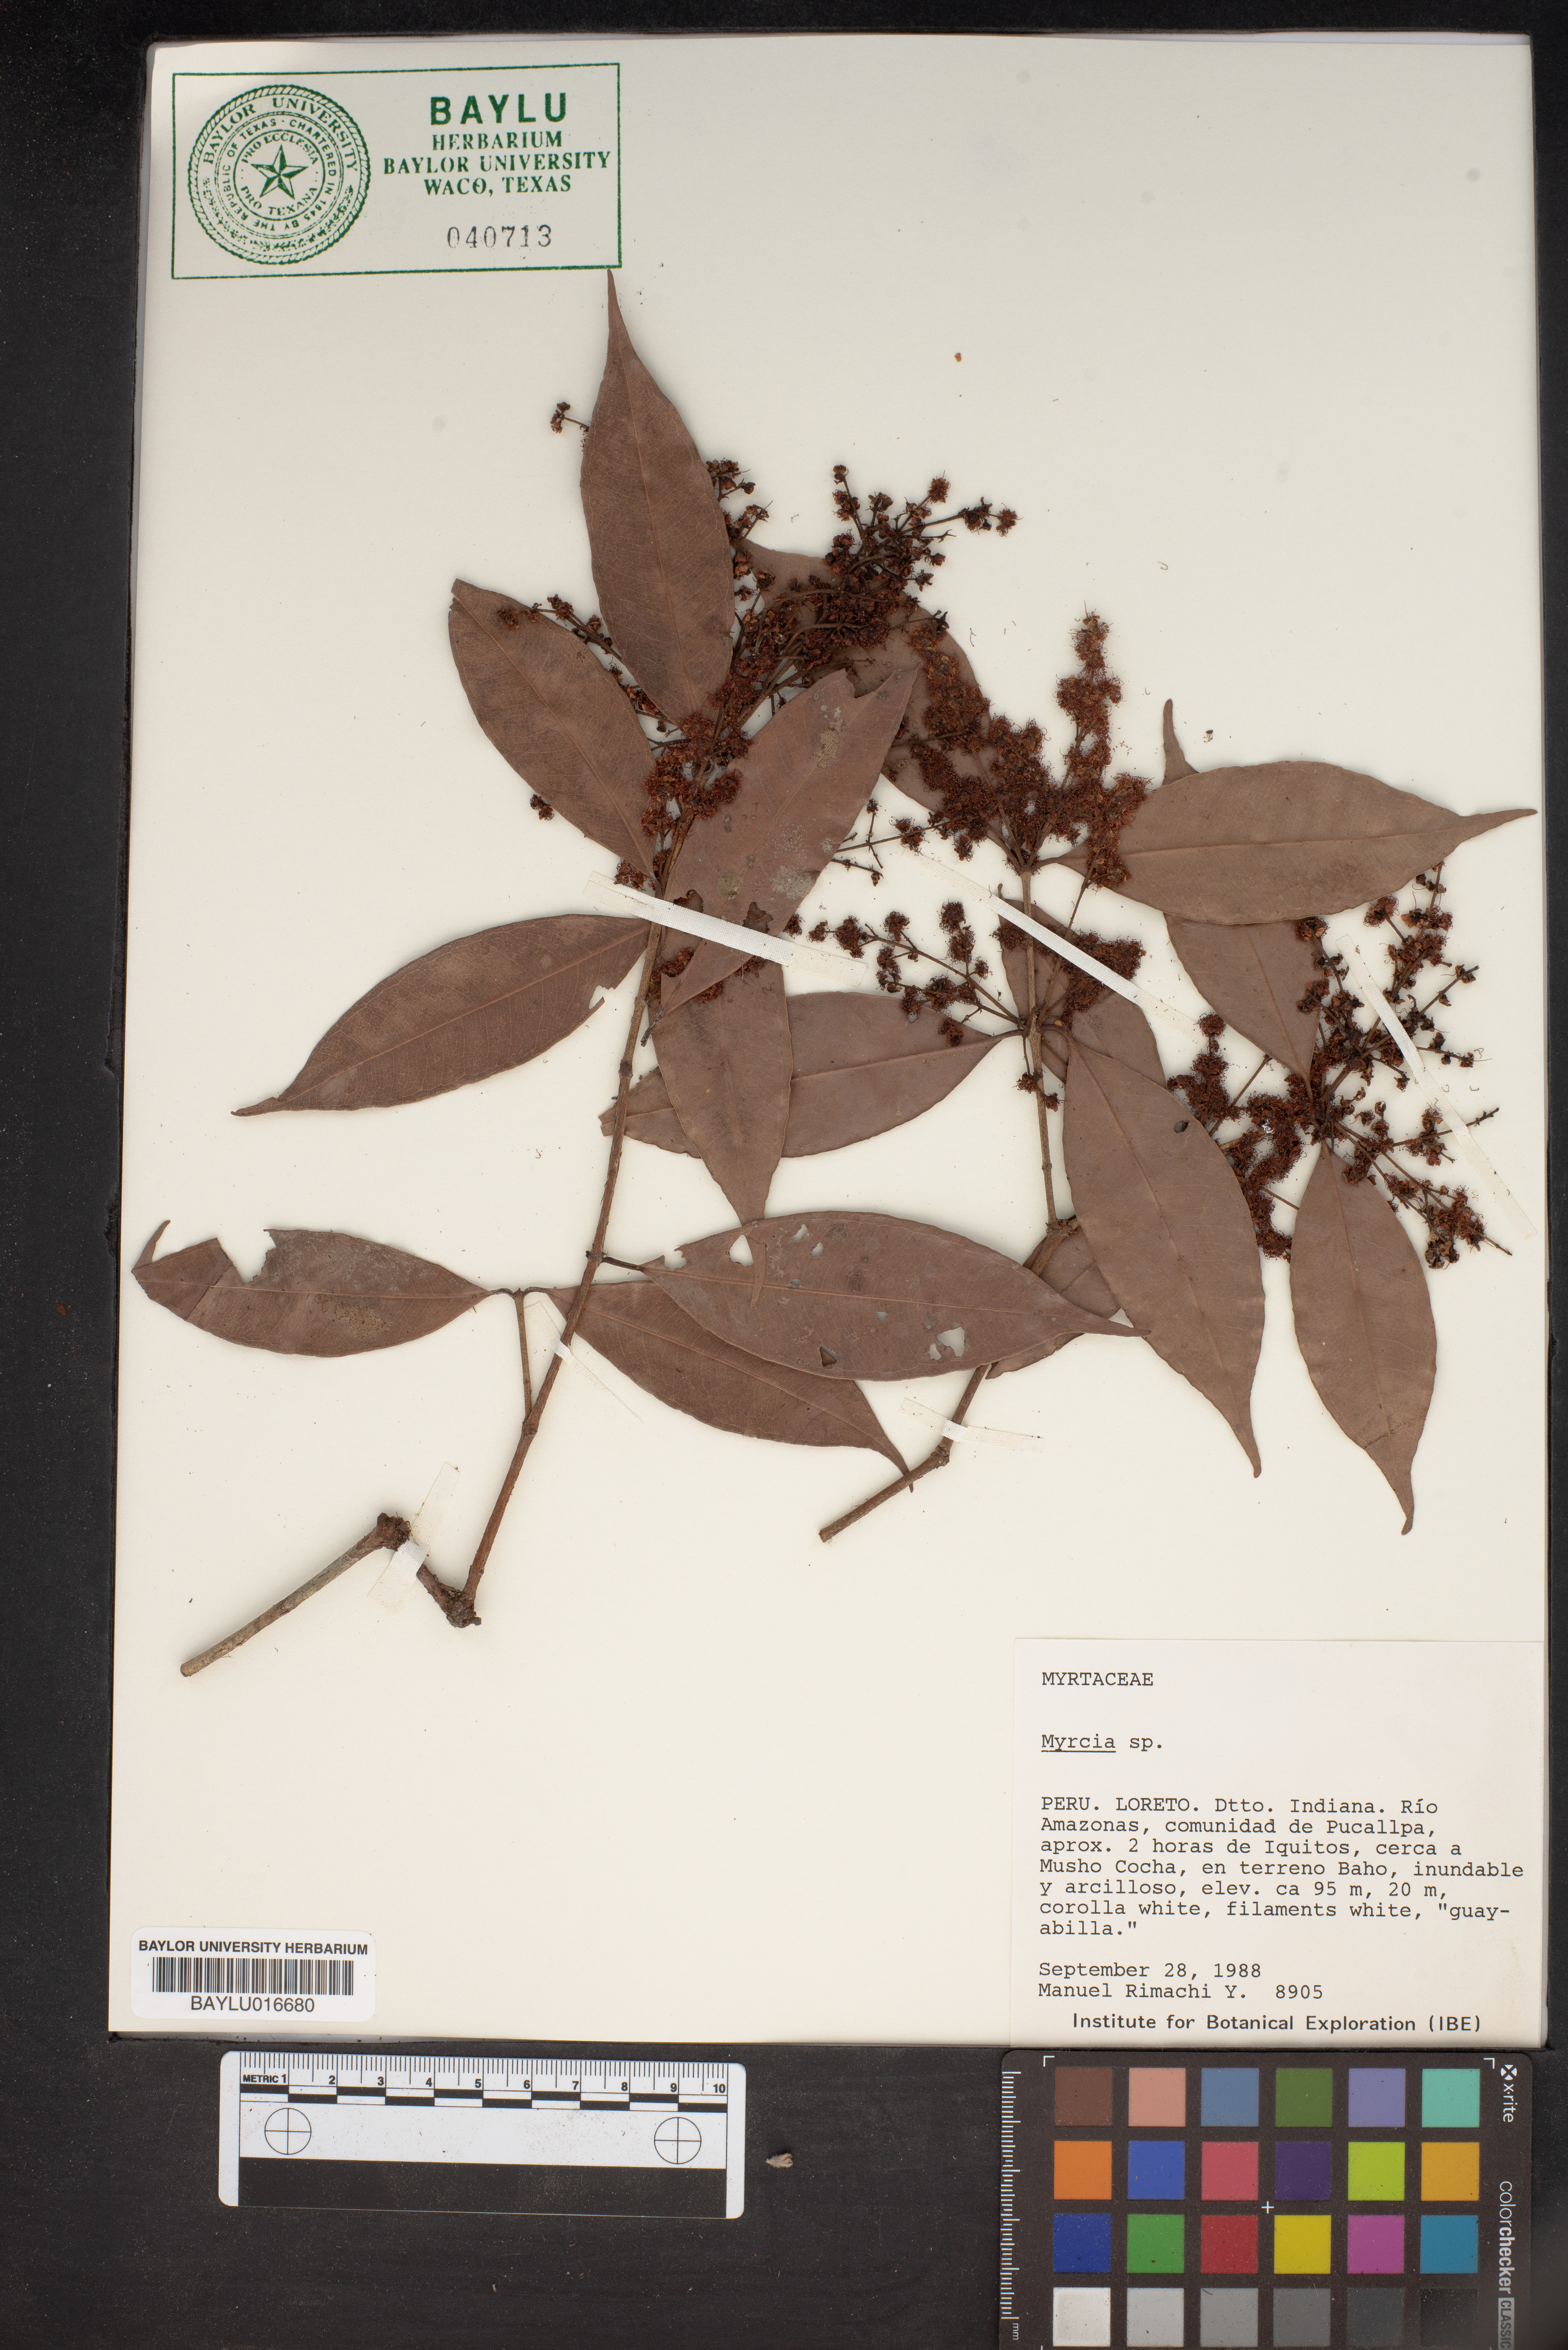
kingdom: Plantae
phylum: Tracheophyta
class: Magnoliopsida
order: Myrtales
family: Myrtaceae
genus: Myrcia
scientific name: Myrcia
